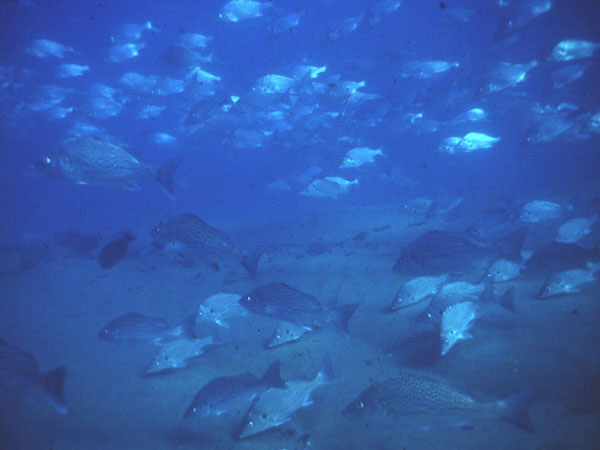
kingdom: Animalia
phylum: Chordata
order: Perciformes
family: Haemulidae
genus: Pomadasys
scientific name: Pomadasys commersonnii
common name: Smallspotted grunter
